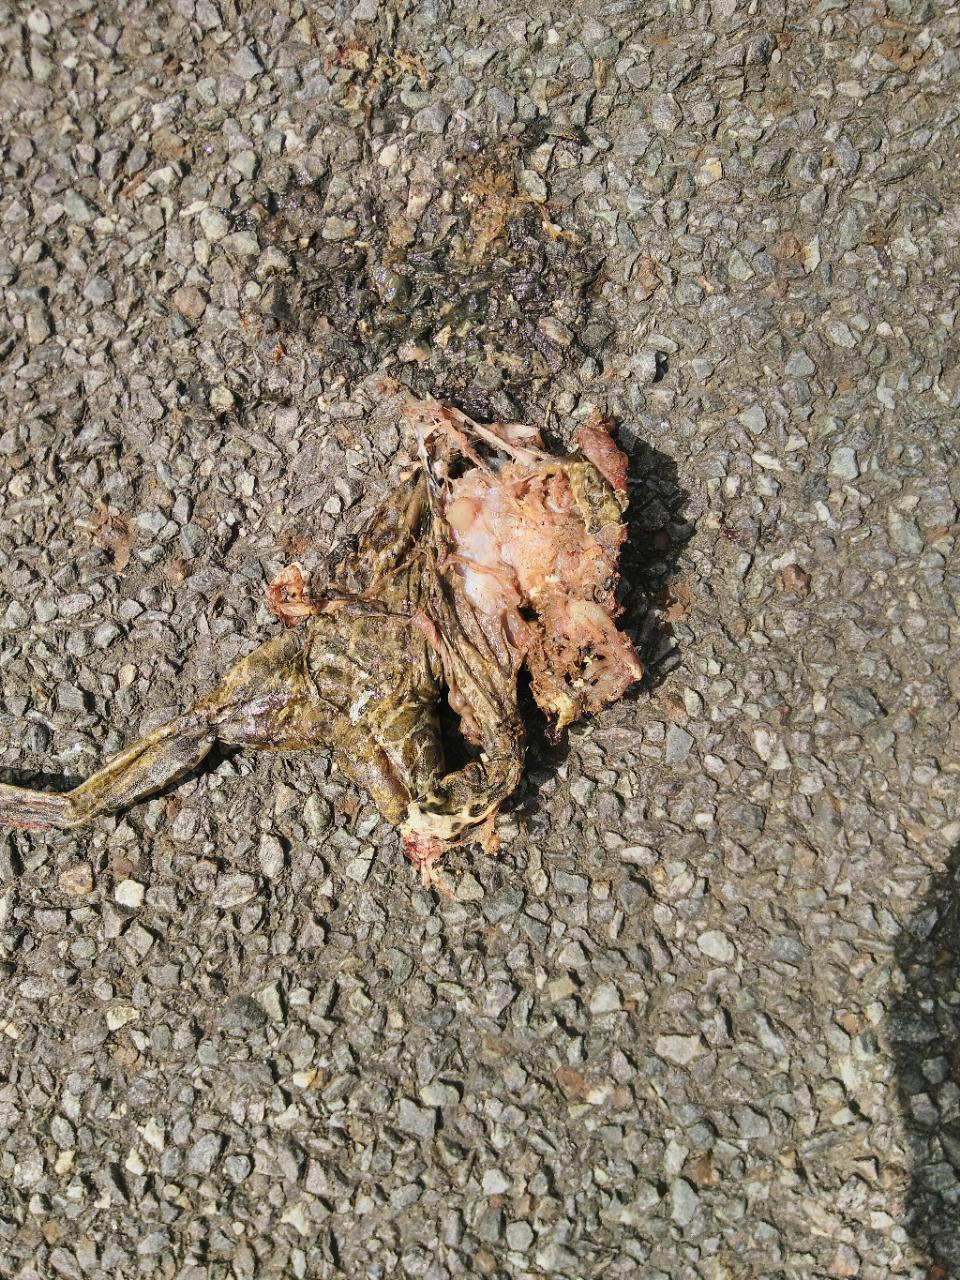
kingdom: Animalia
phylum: Chordata
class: Amphibia
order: Anura
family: Bufonidae
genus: Bufotes
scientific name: Bufotes viridis
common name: European green toad
